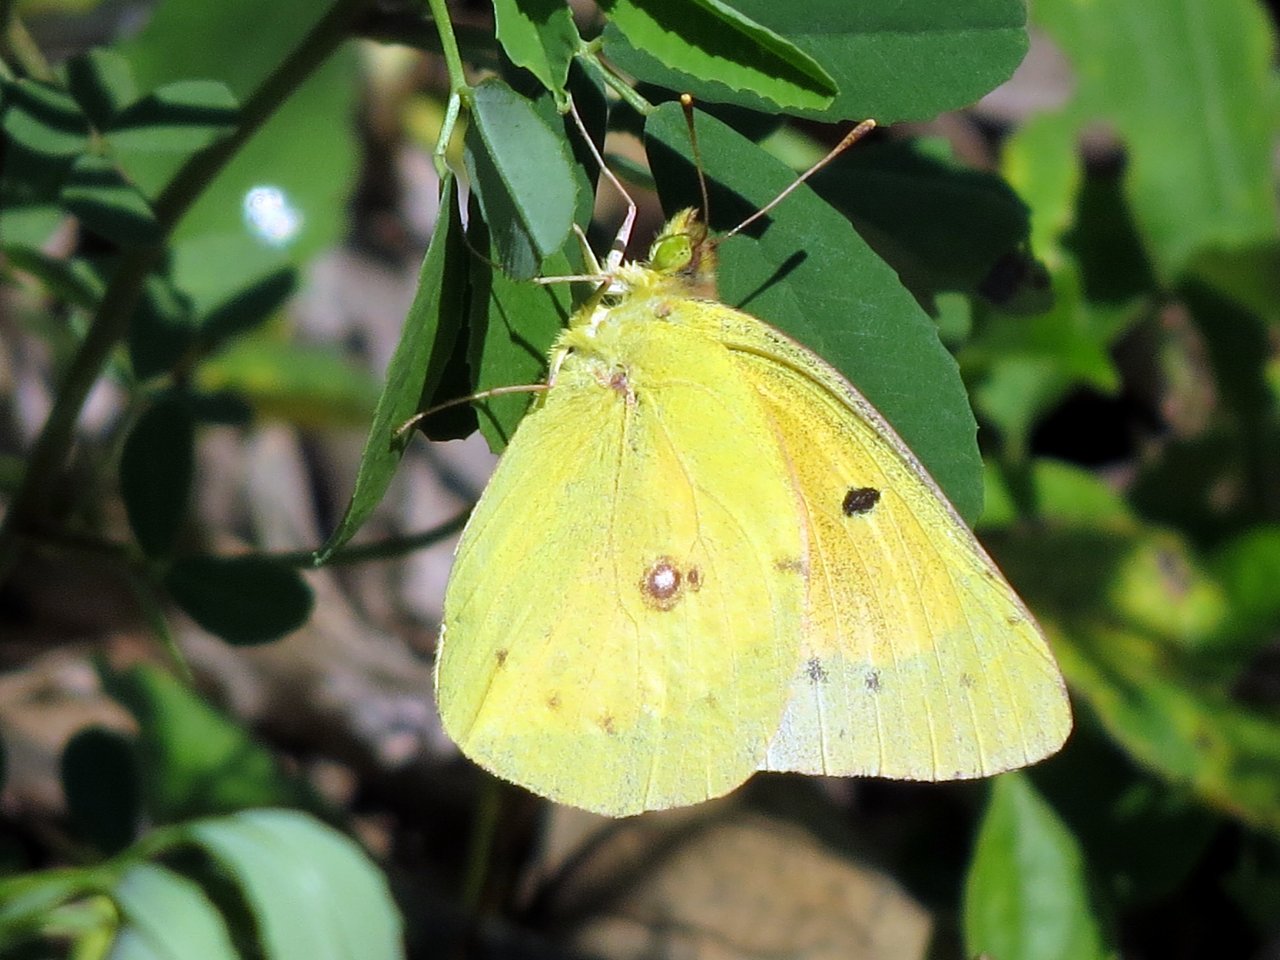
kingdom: Animalia
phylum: Arthropoda
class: Insecta
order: Lepidoptera
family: Pieridae
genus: Colias
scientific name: Colias eurytheme
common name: Orange Sulphur
